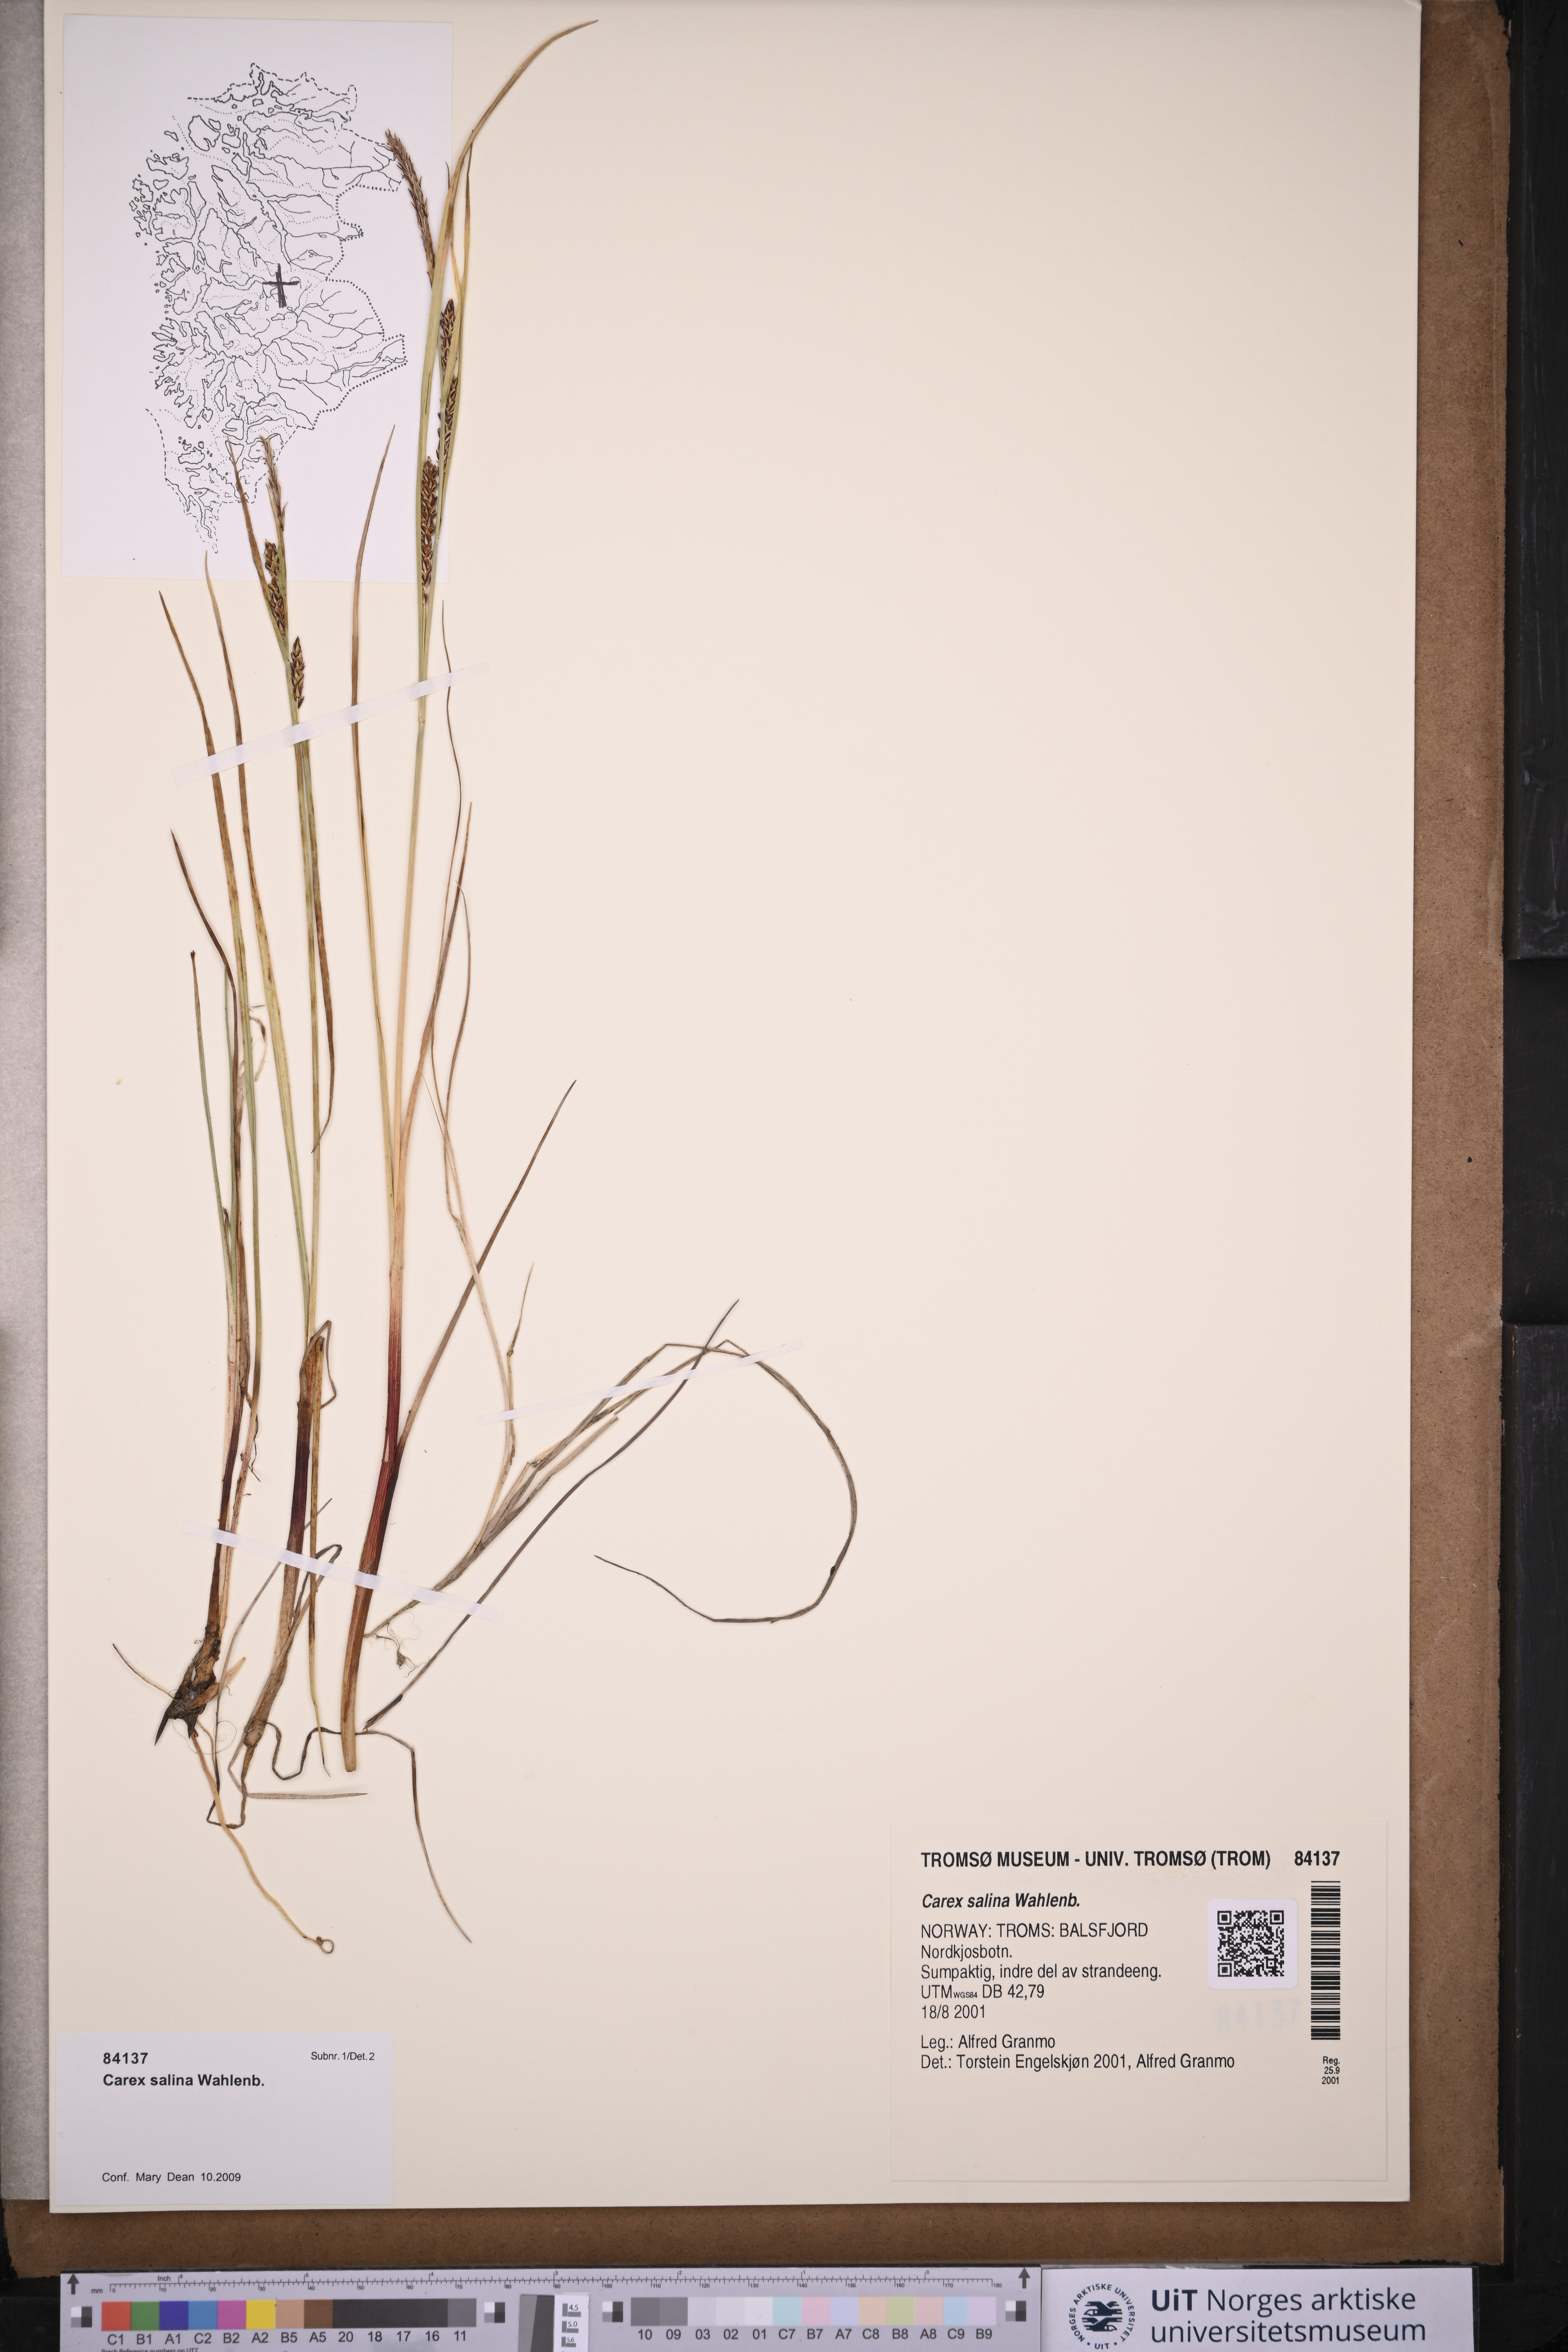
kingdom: Plantae
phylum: Tracheophyta
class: Liliopsida
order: Poales
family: Cyperaceae
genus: Carex
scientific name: Carex salina
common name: Saltmarsh sedge
